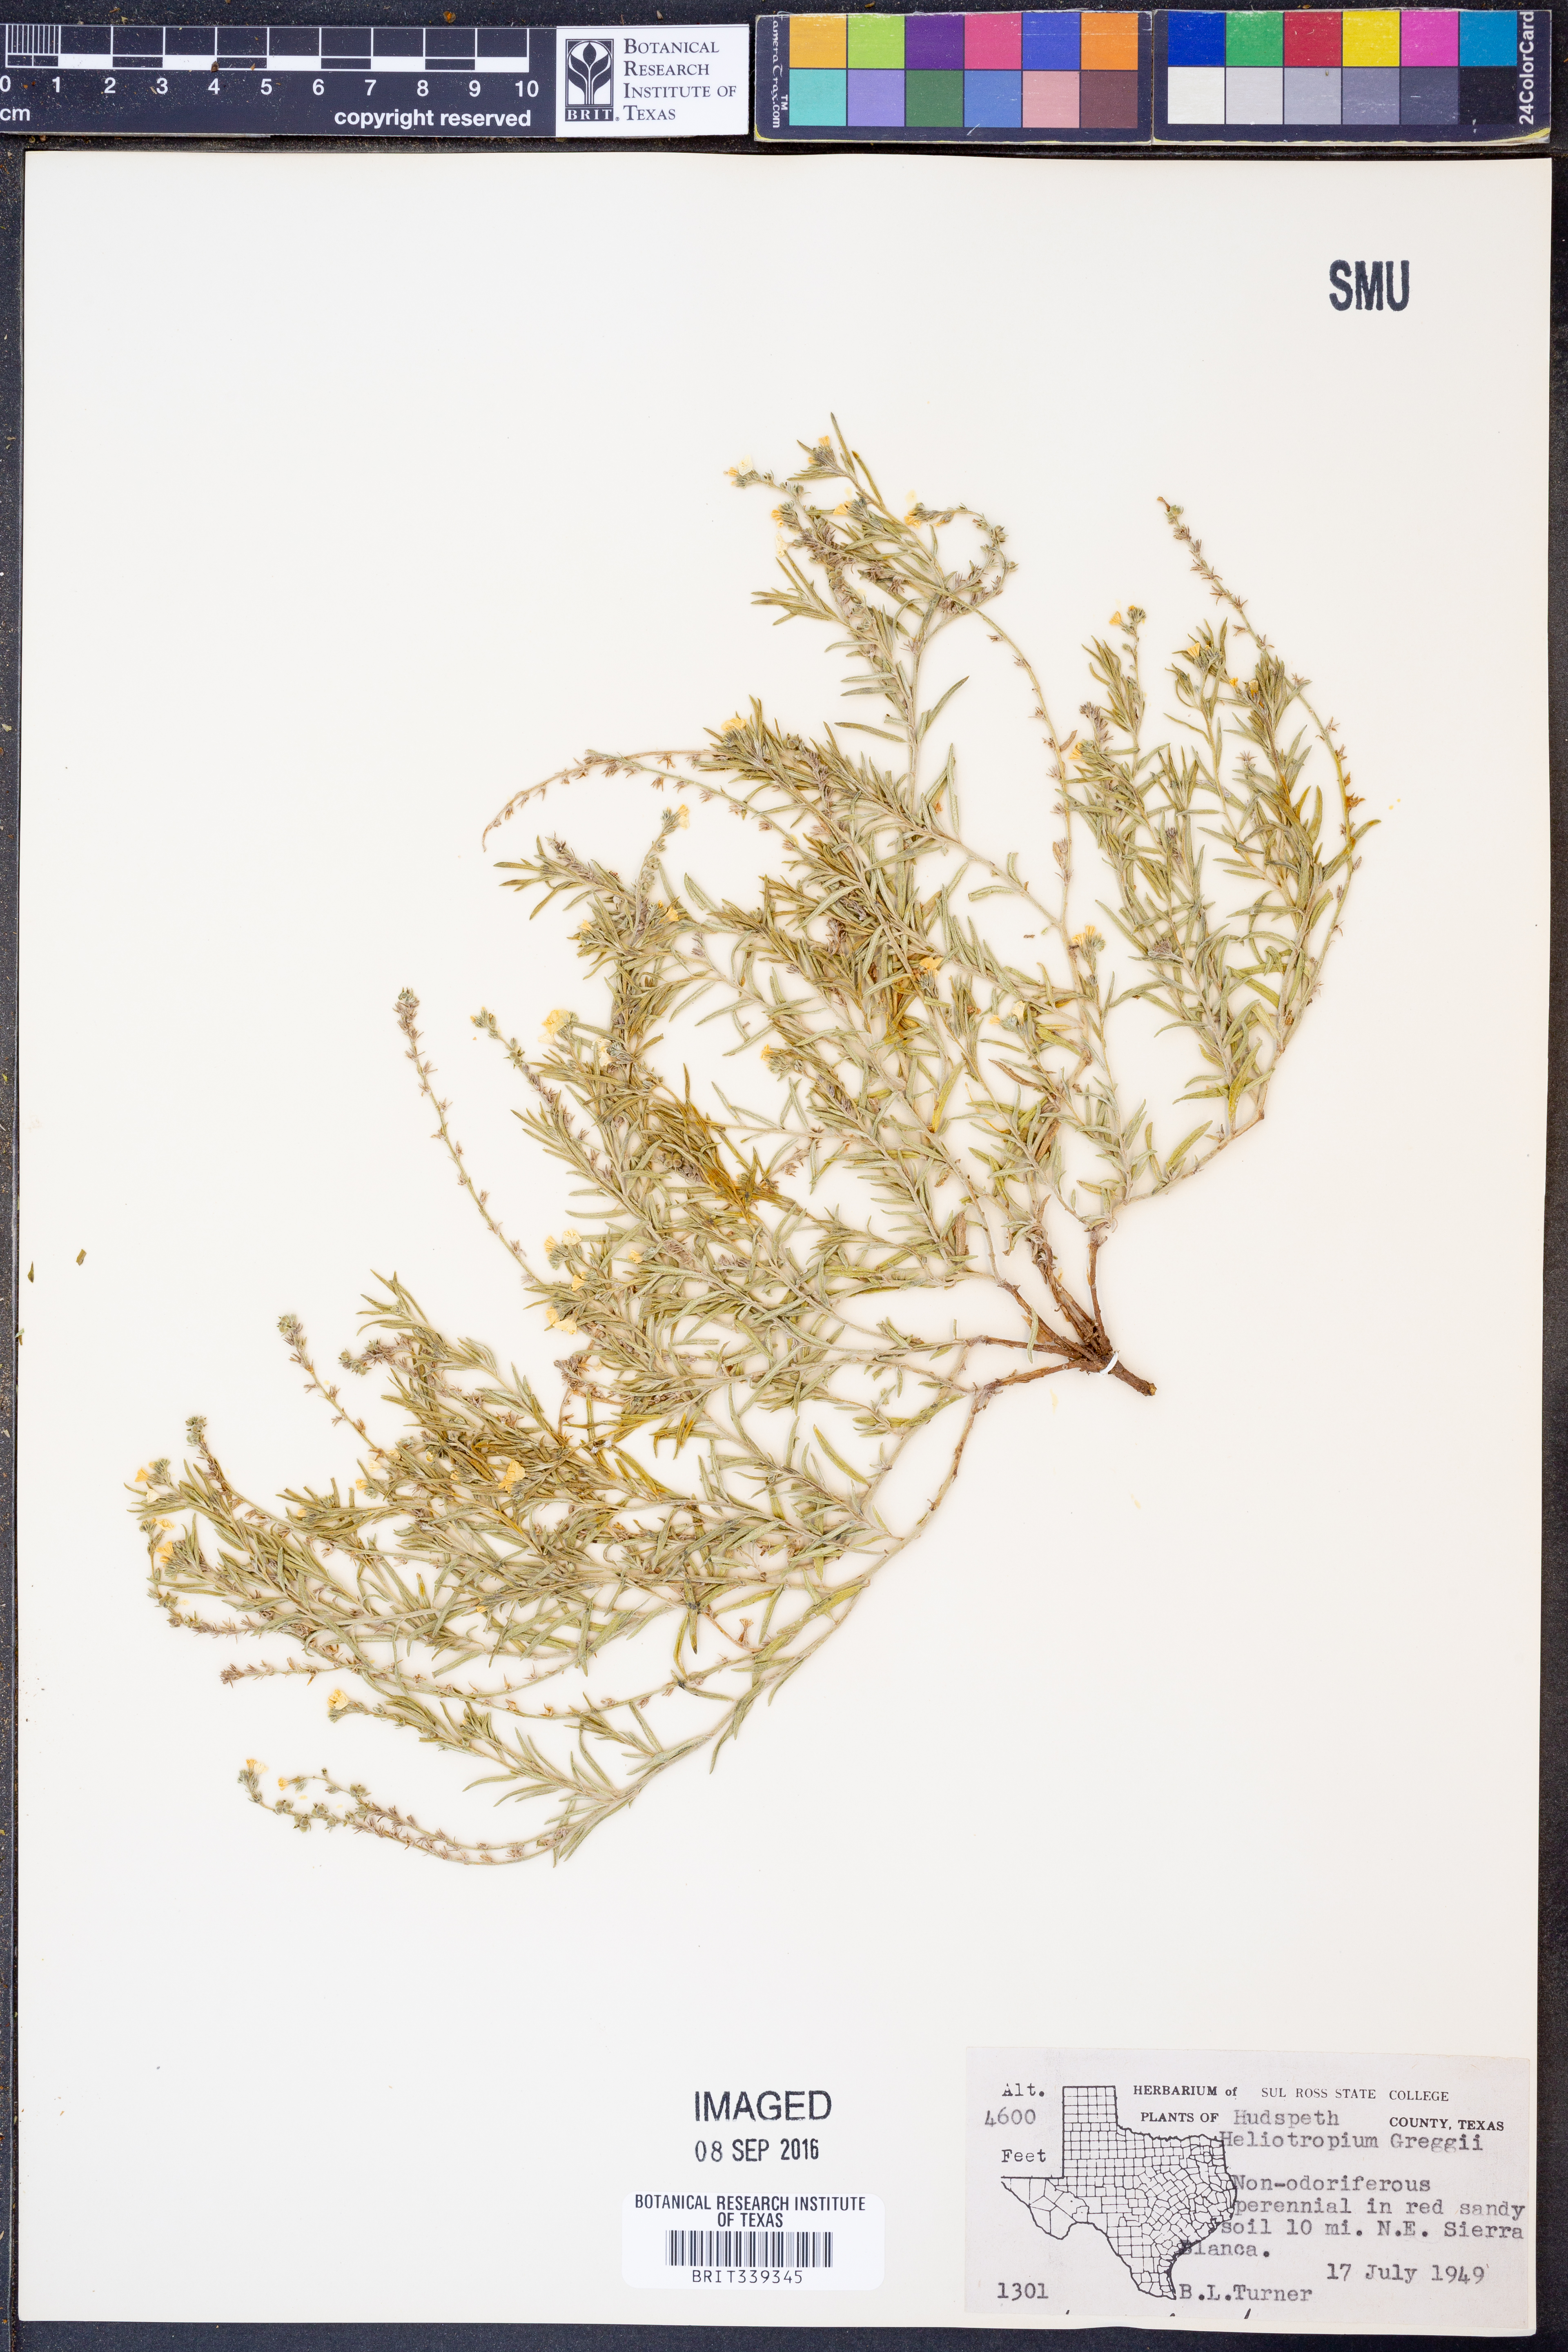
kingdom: Plantae
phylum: Tracheophyta
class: Magnoliopsida
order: Boraginales
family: Heliotropiaceae
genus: Euploca
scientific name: Euploca greggii
